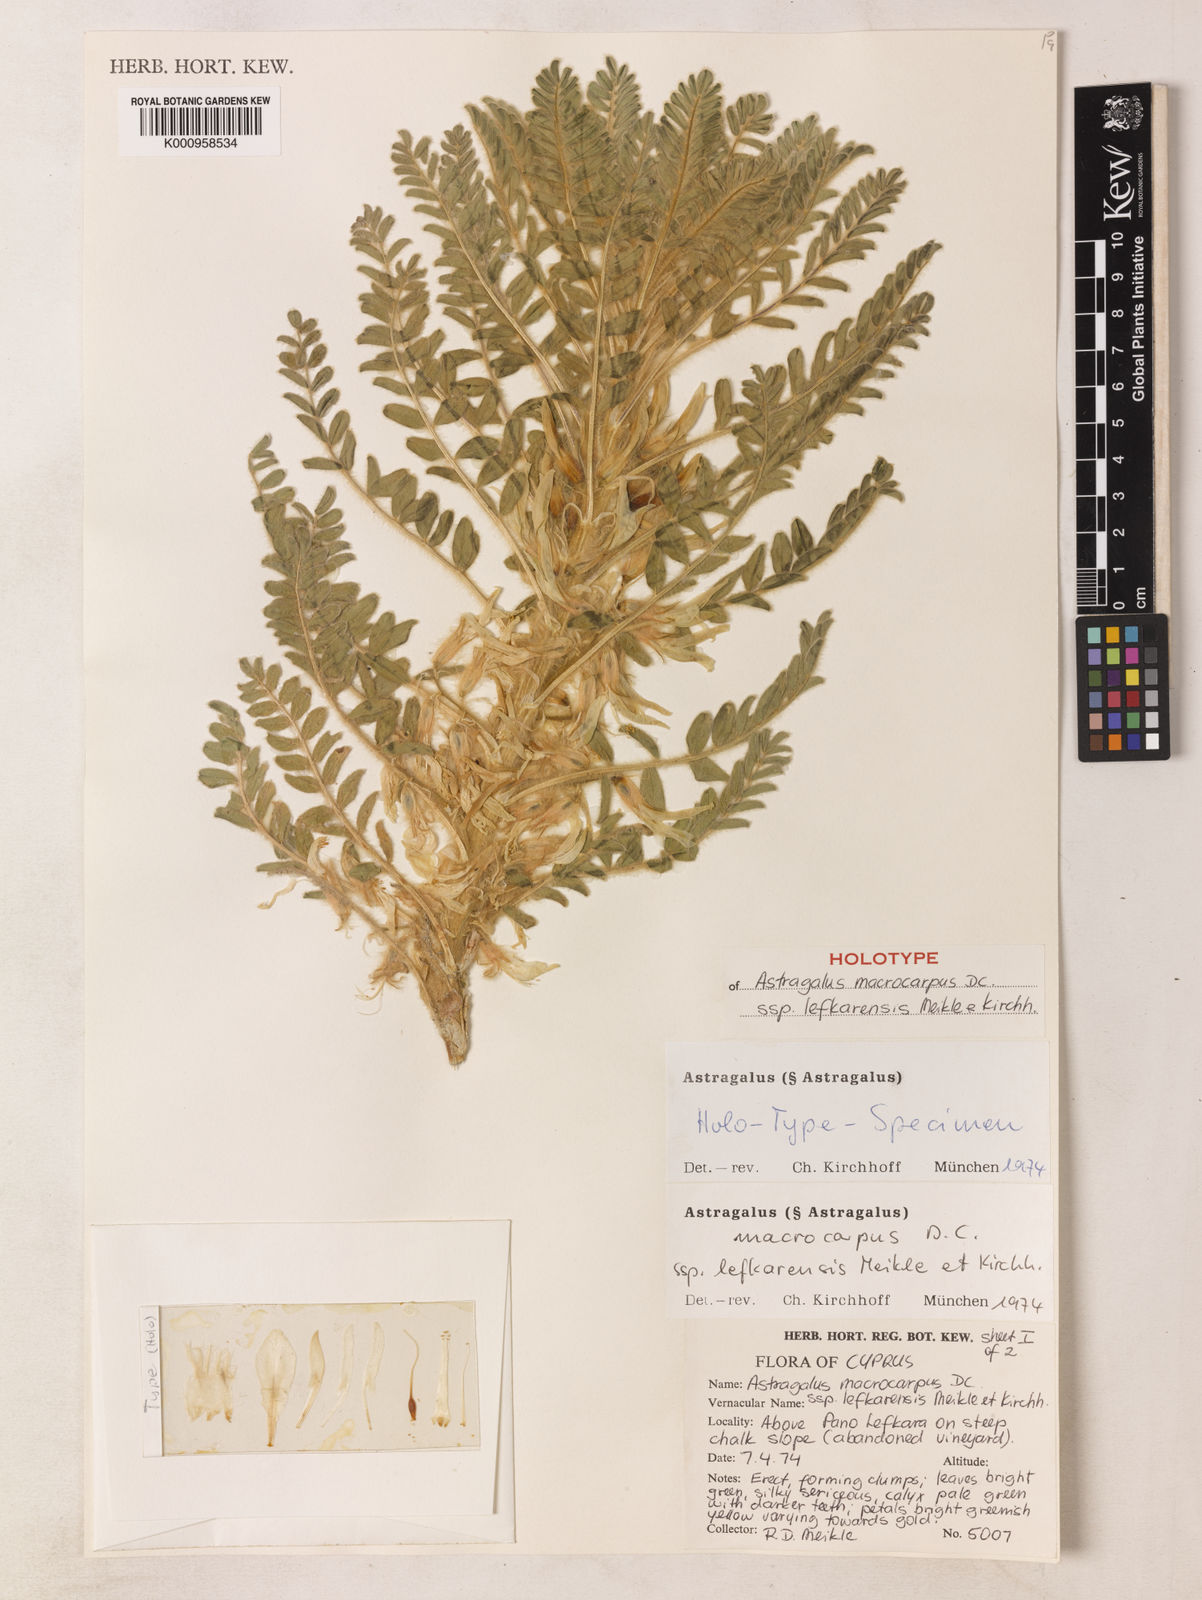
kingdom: Plantae
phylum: Tracheophyta
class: Magnoliopsida
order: Fabales
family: Fabaceae
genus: Astragalus
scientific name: Astragalus macrocarpus
